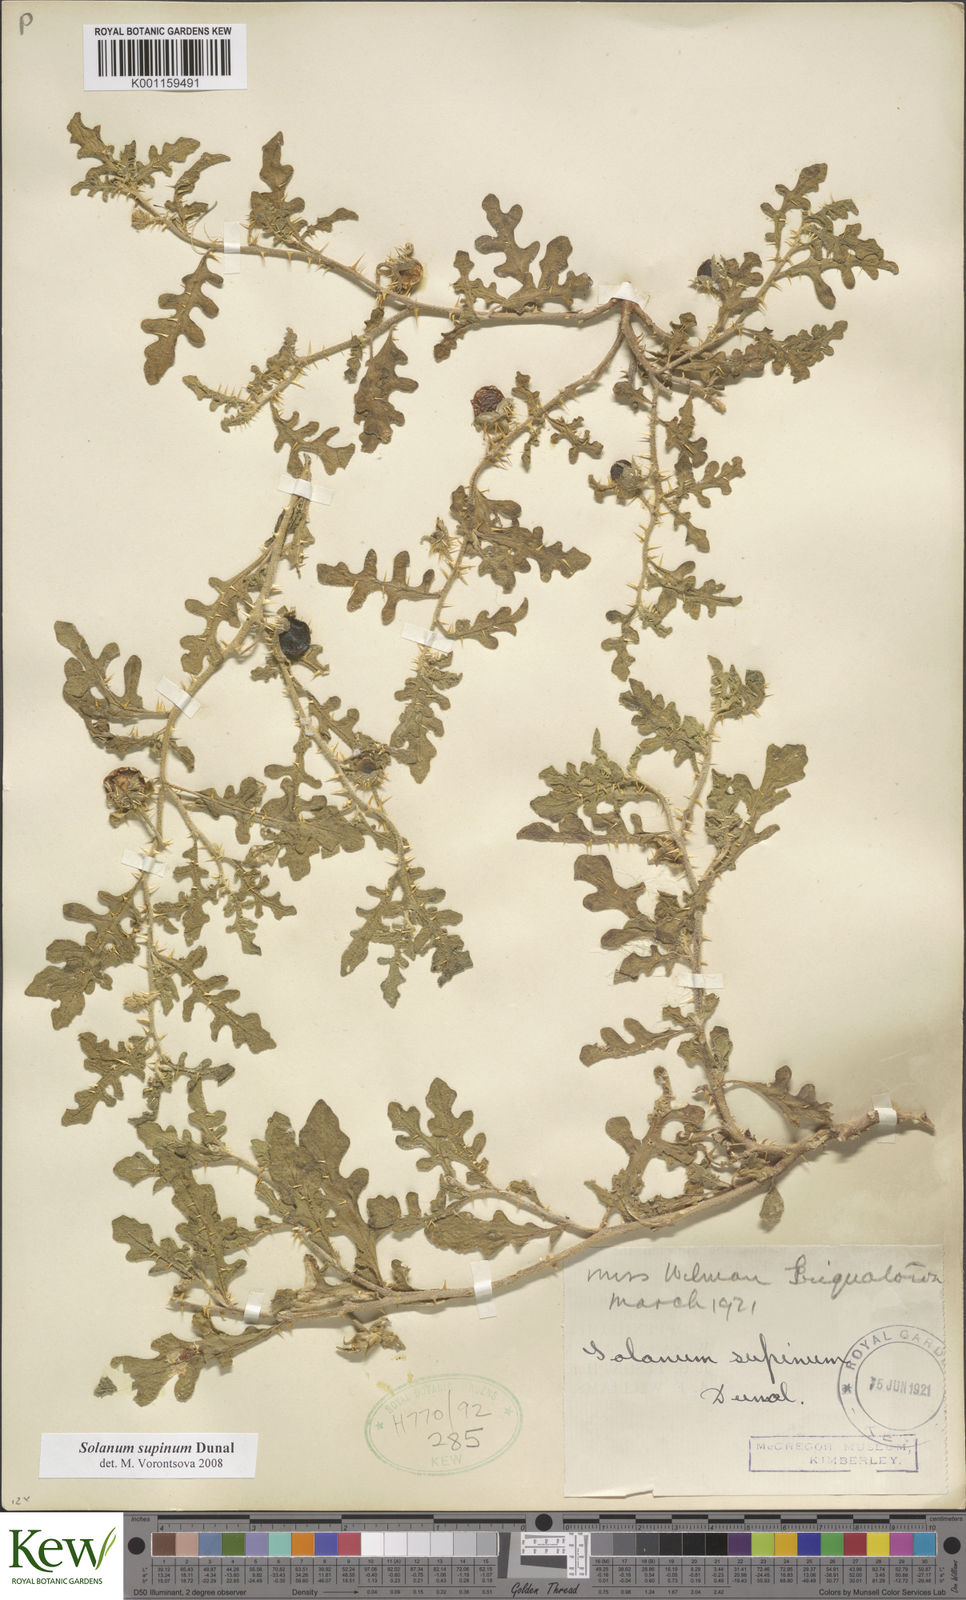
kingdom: Plantae
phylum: Tracheophyta
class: Magnoliopsida
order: Solanales
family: Solanaceae
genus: Solanum
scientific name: Solanum supinum
